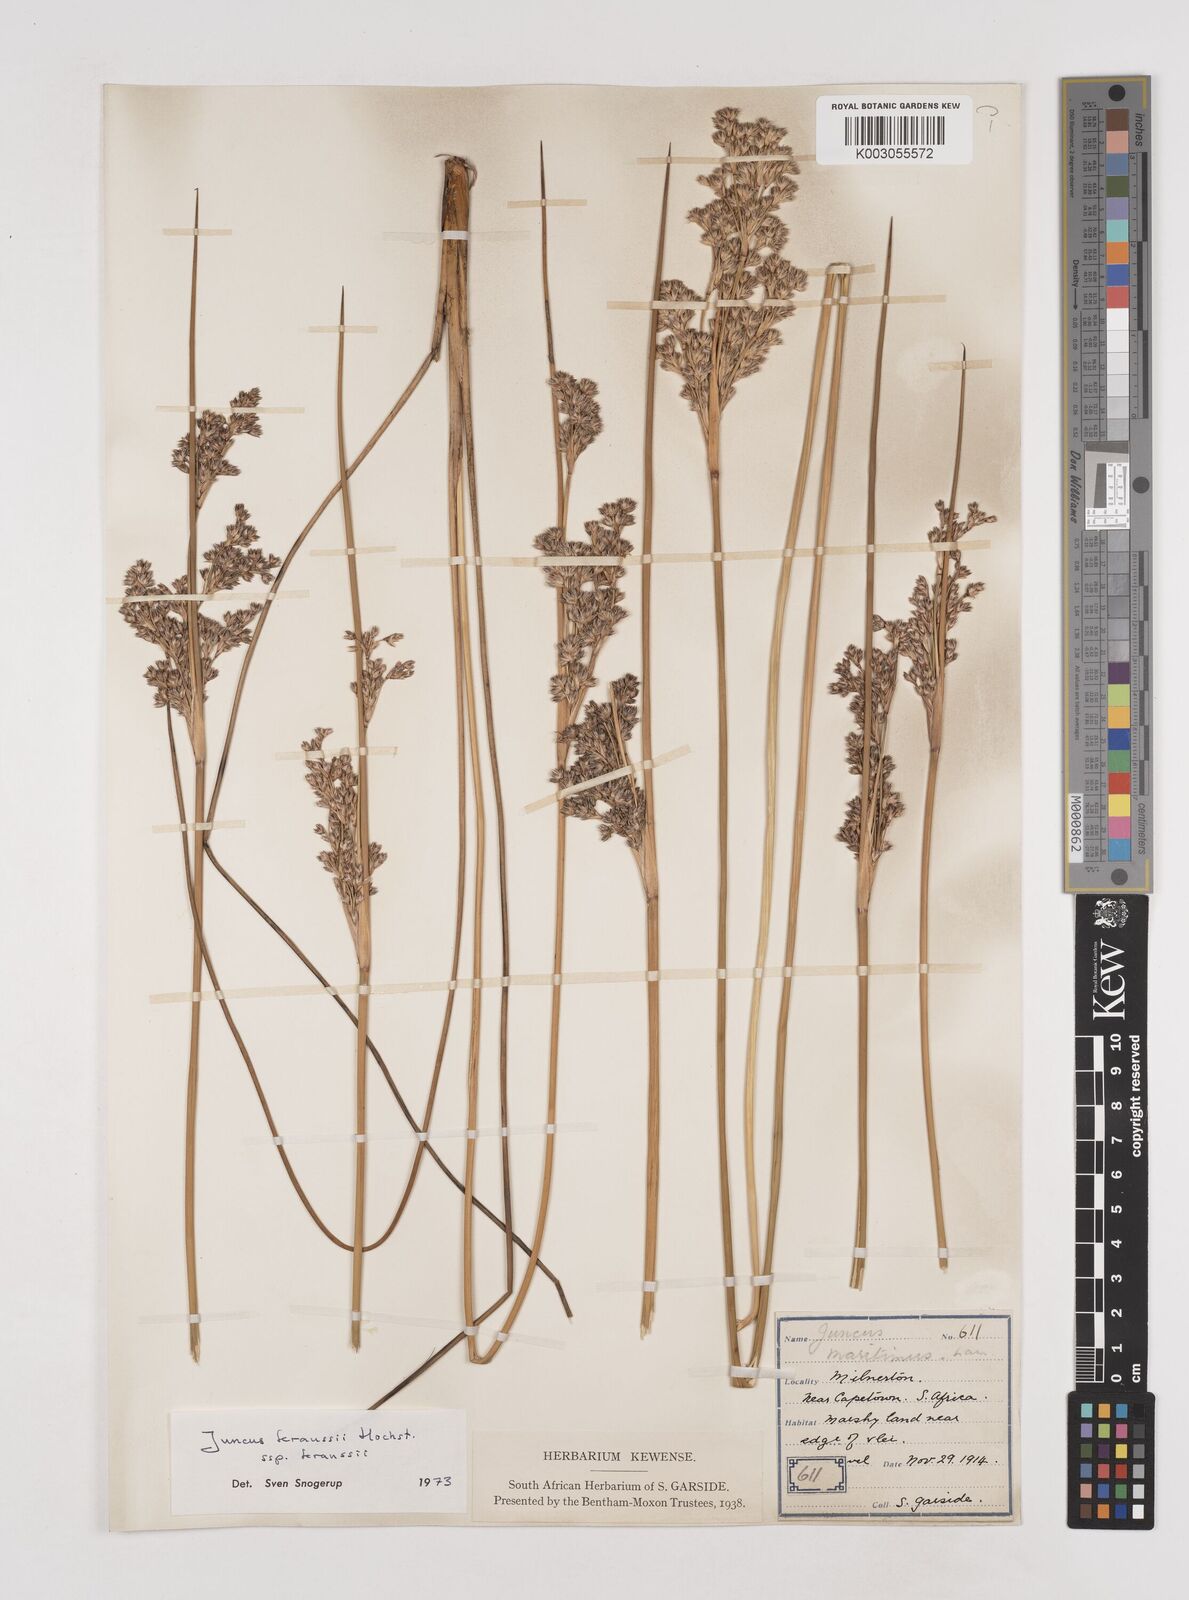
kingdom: Plantae
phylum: Tracheophyta
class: Liliopsida
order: Poales
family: Juncaceae
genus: Juncus
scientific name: Juncus kraussii
